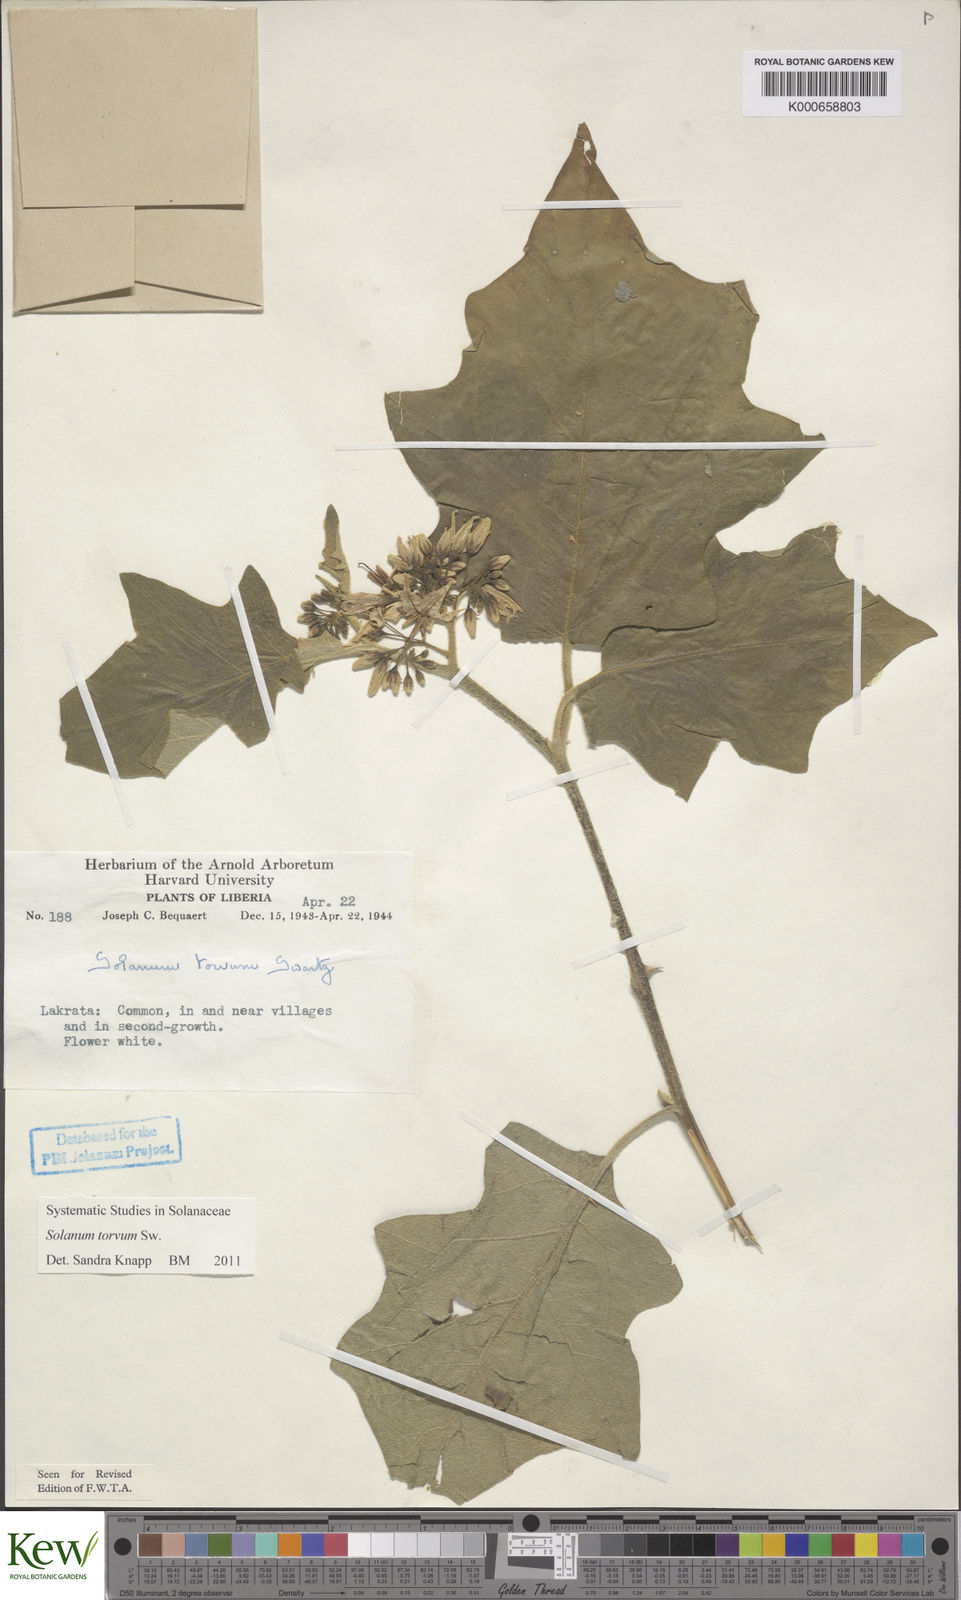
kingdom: Plantae
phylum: Tracheophyta
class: Magnoliopsida
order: Solanales
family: Solanaceae
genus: Solanum
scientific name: Solanum torvum
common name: Turkey berry
